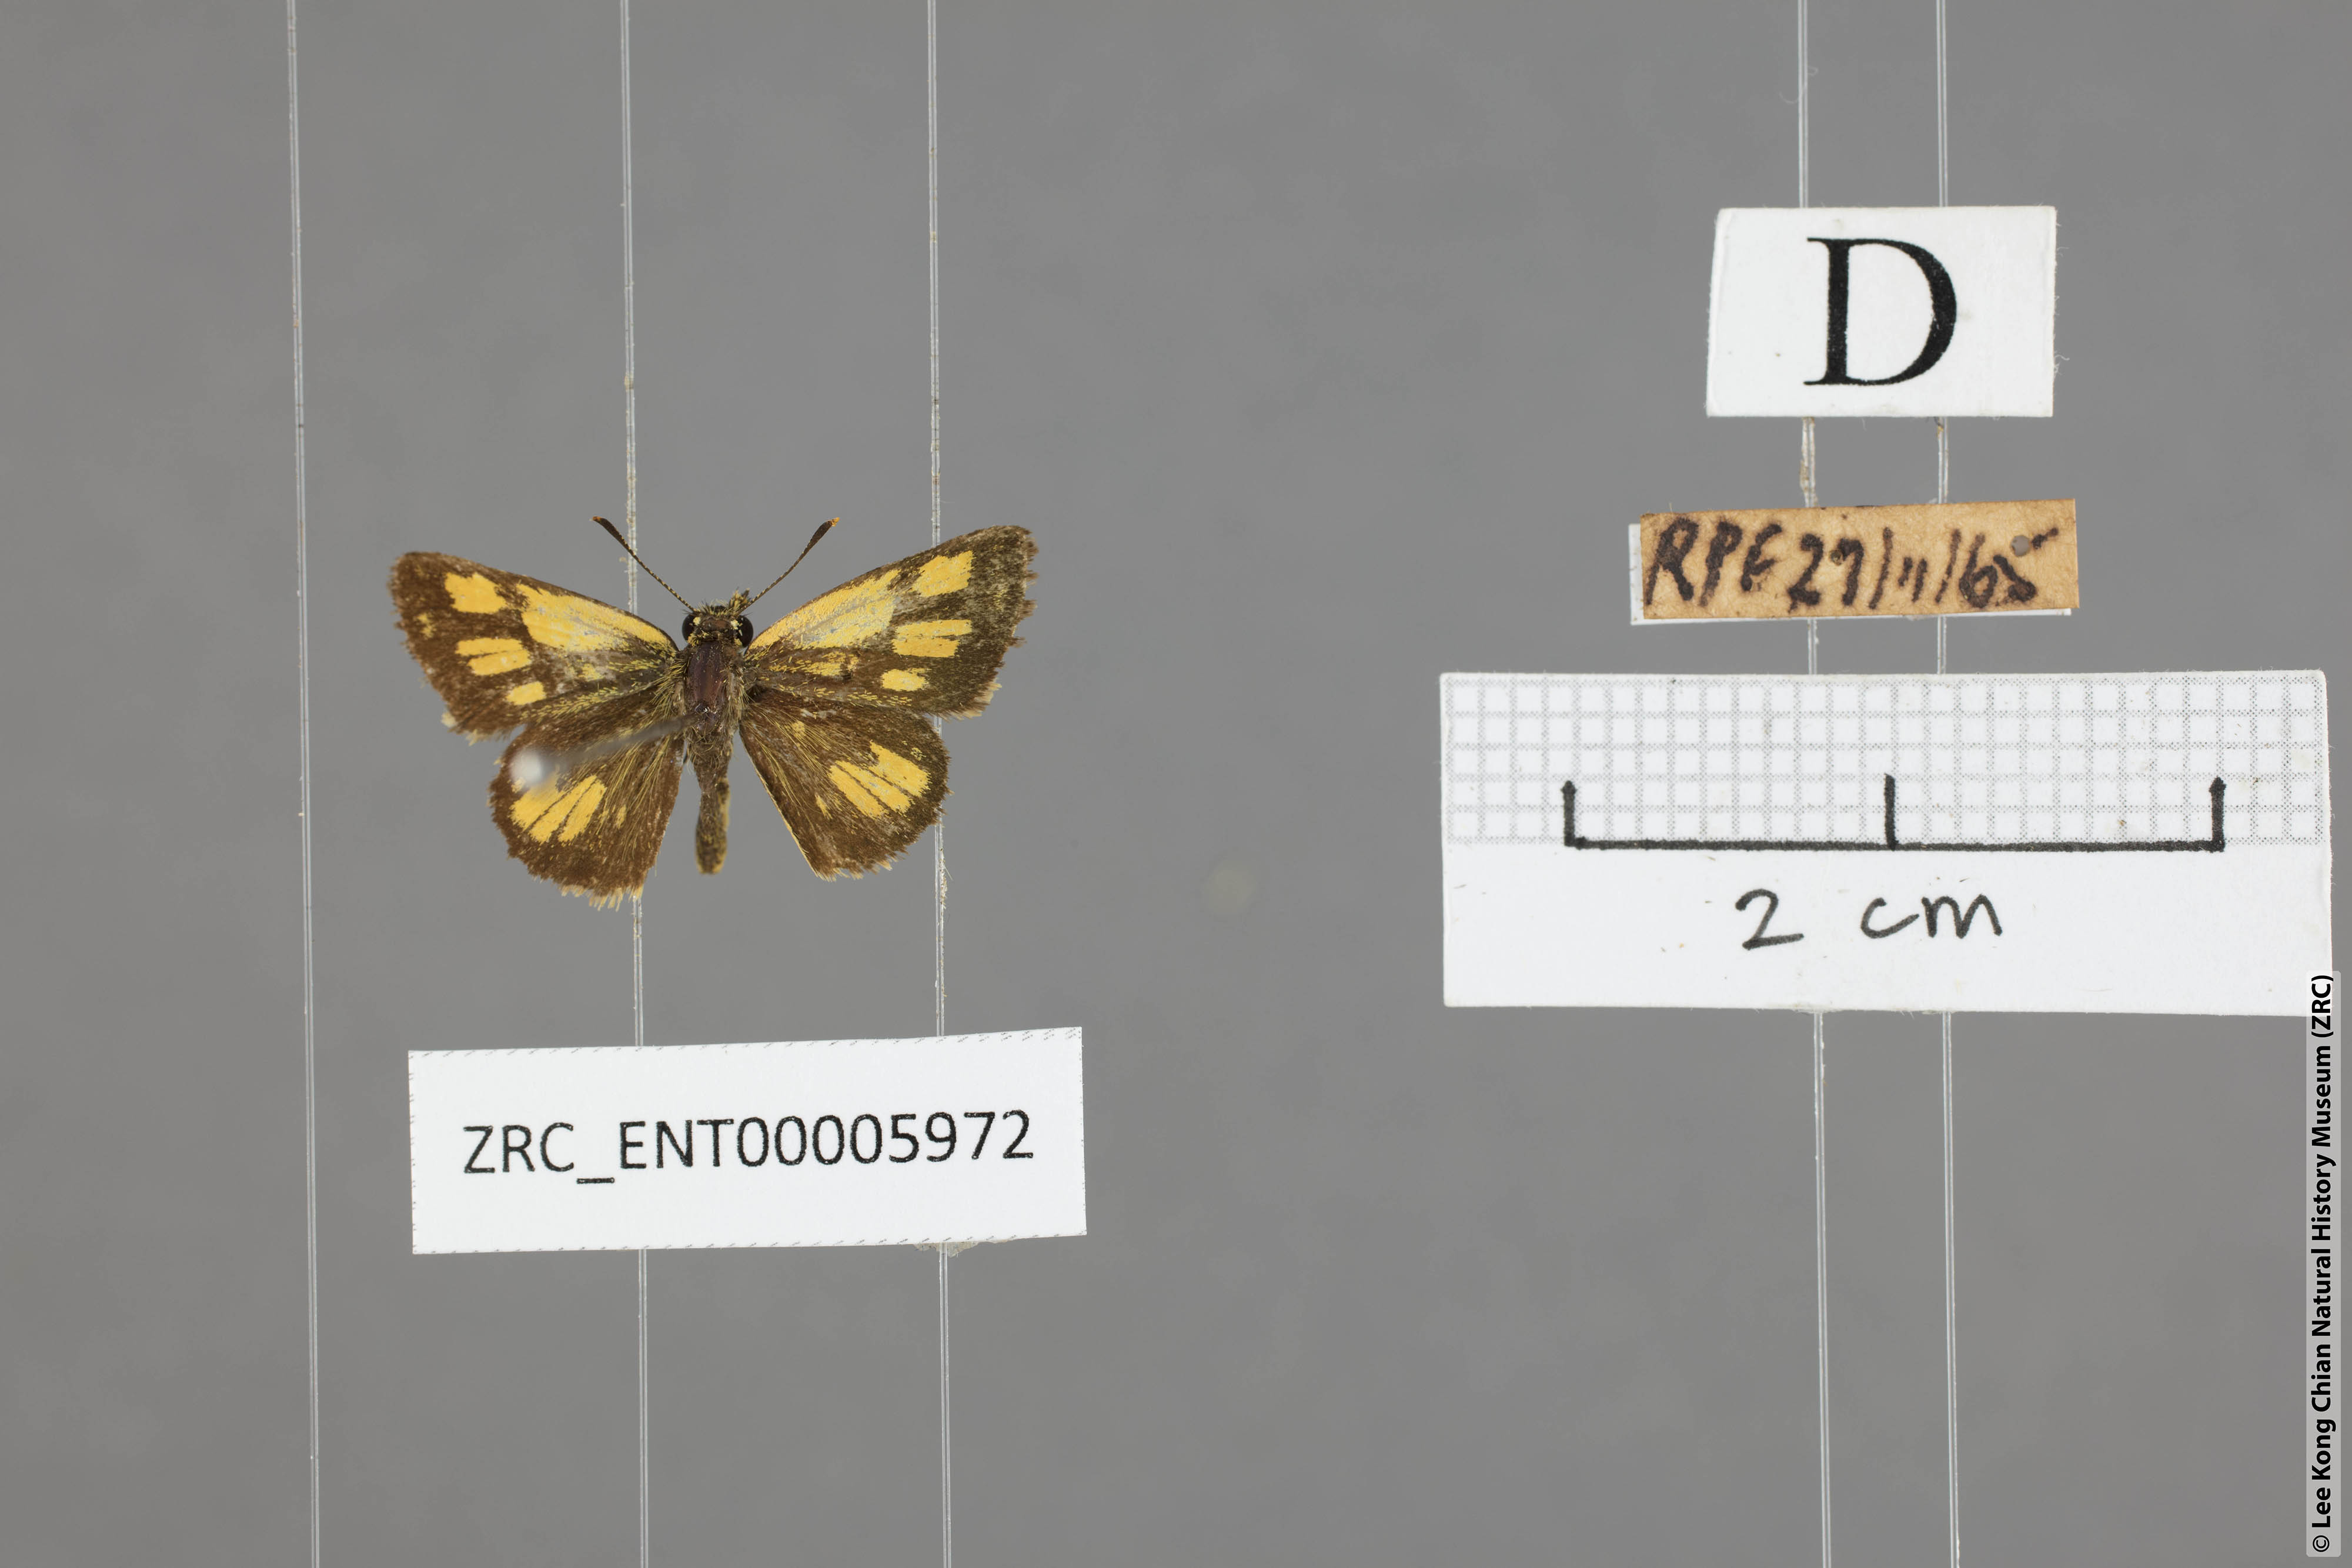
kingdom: Animalia
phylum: Arthropoda
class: Insecta
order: Lepidoptera
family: Hesperiidae
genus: Ampittia
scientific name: Ampittia dioscorides
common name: Common bush hopper
